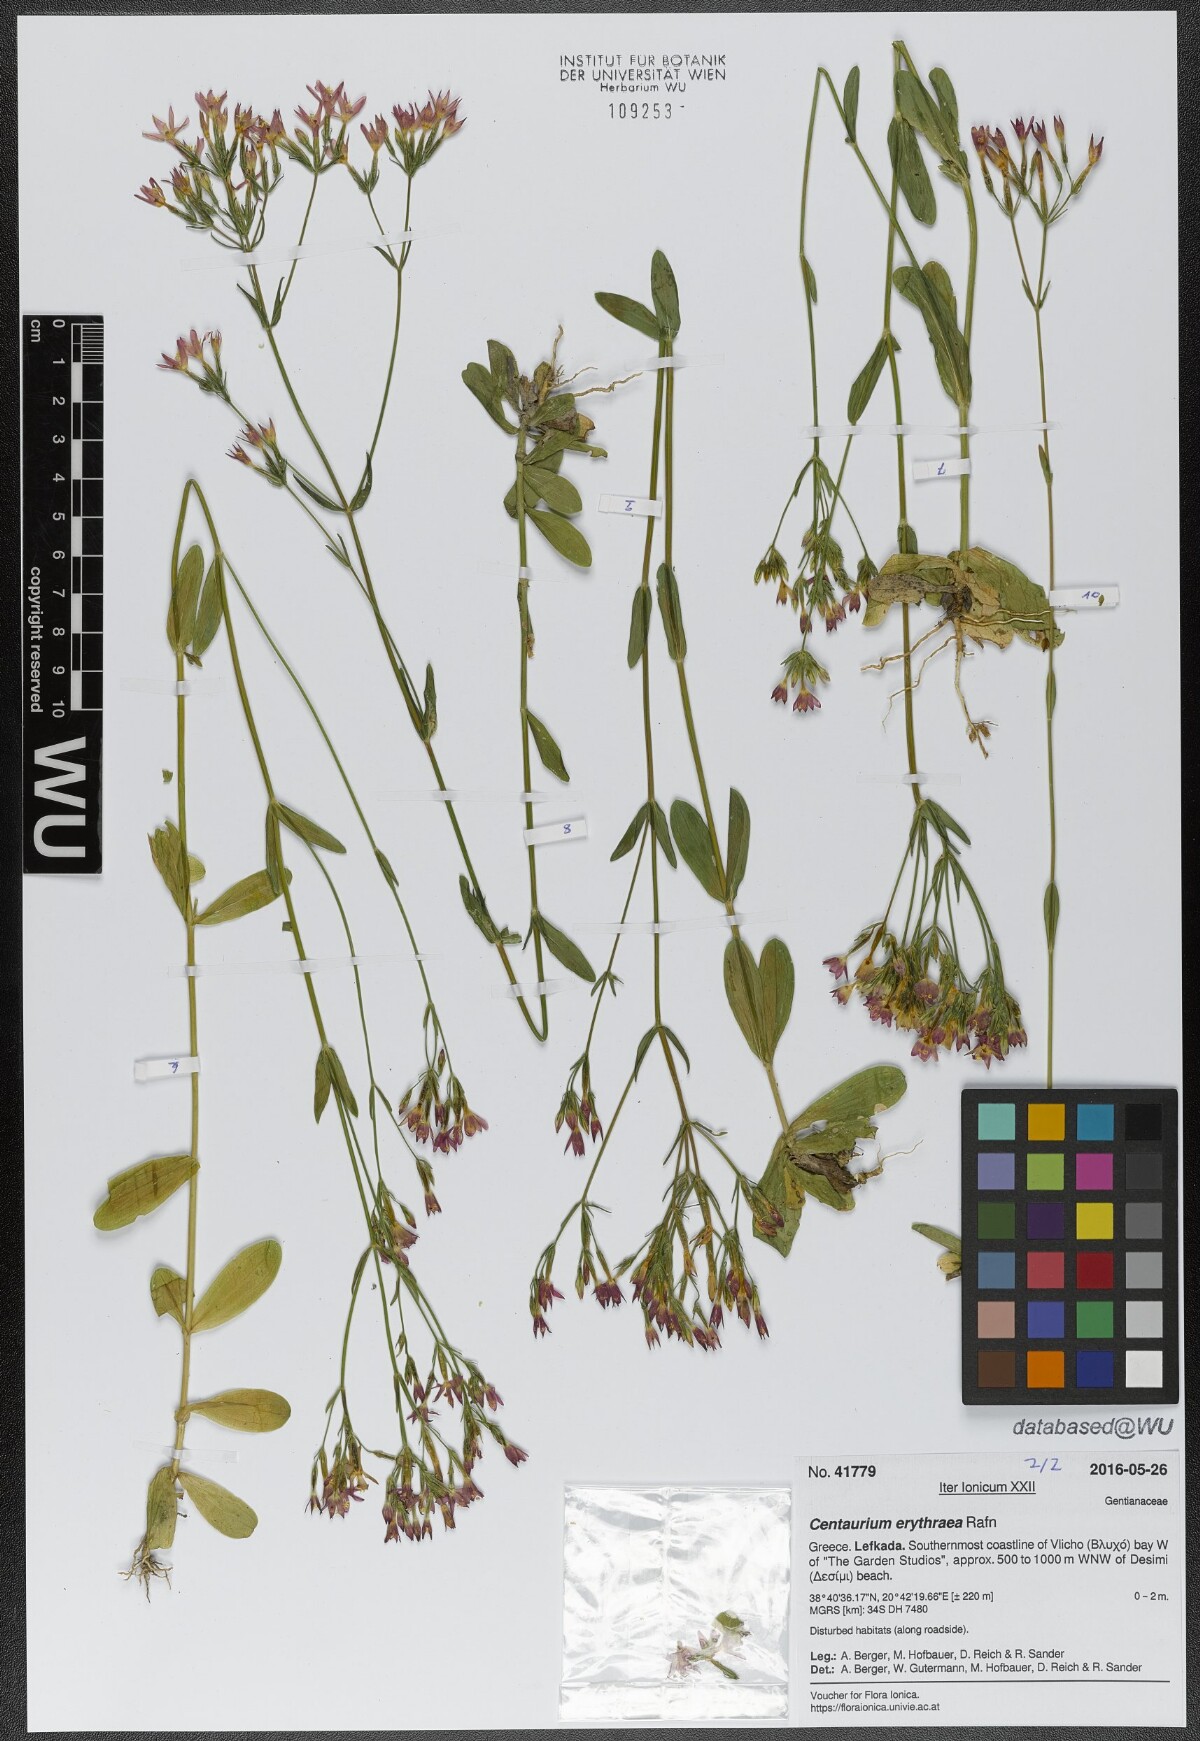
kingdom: Plantae
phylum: Tracheophyta
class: Magnoliopsida
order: Gentianales
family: Gentianaceae
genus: Centaurium
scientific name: Centaurium erythraea
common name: Common centaury
